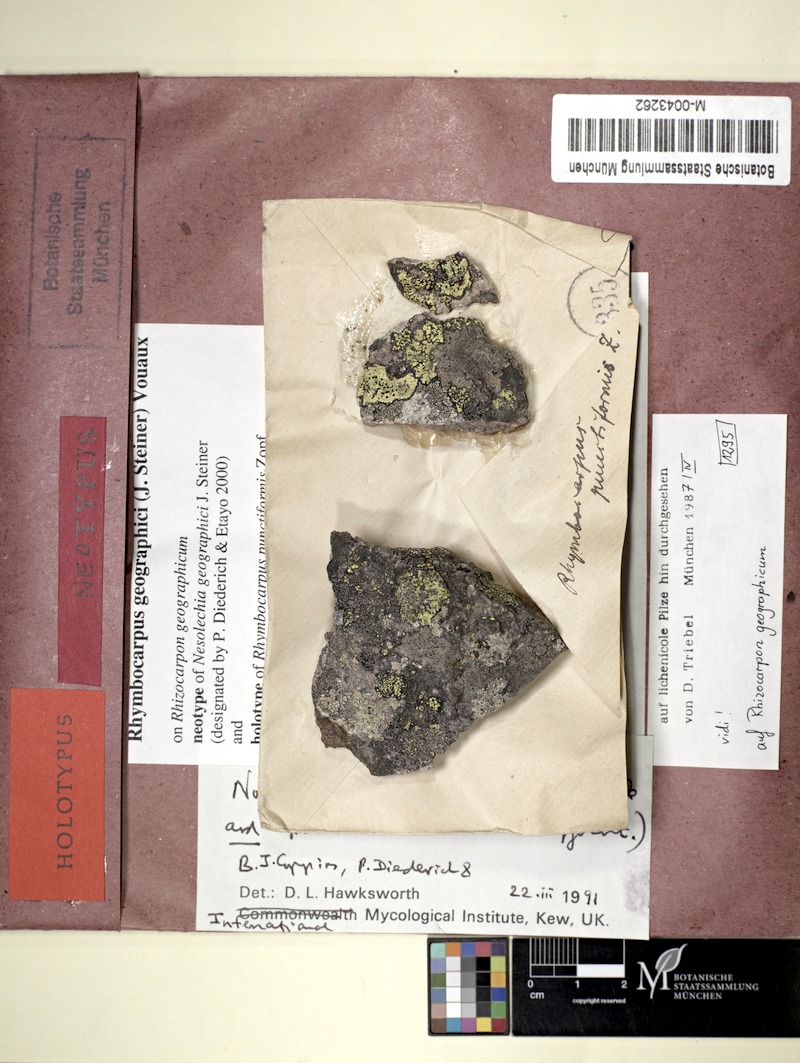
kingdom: Fungi
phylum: Ascomycota
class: Leotiomycetes
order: Helotiales
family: Cordieritidaceae
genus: Rhymbocarpus
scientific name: Rhymbocarpus geographici
